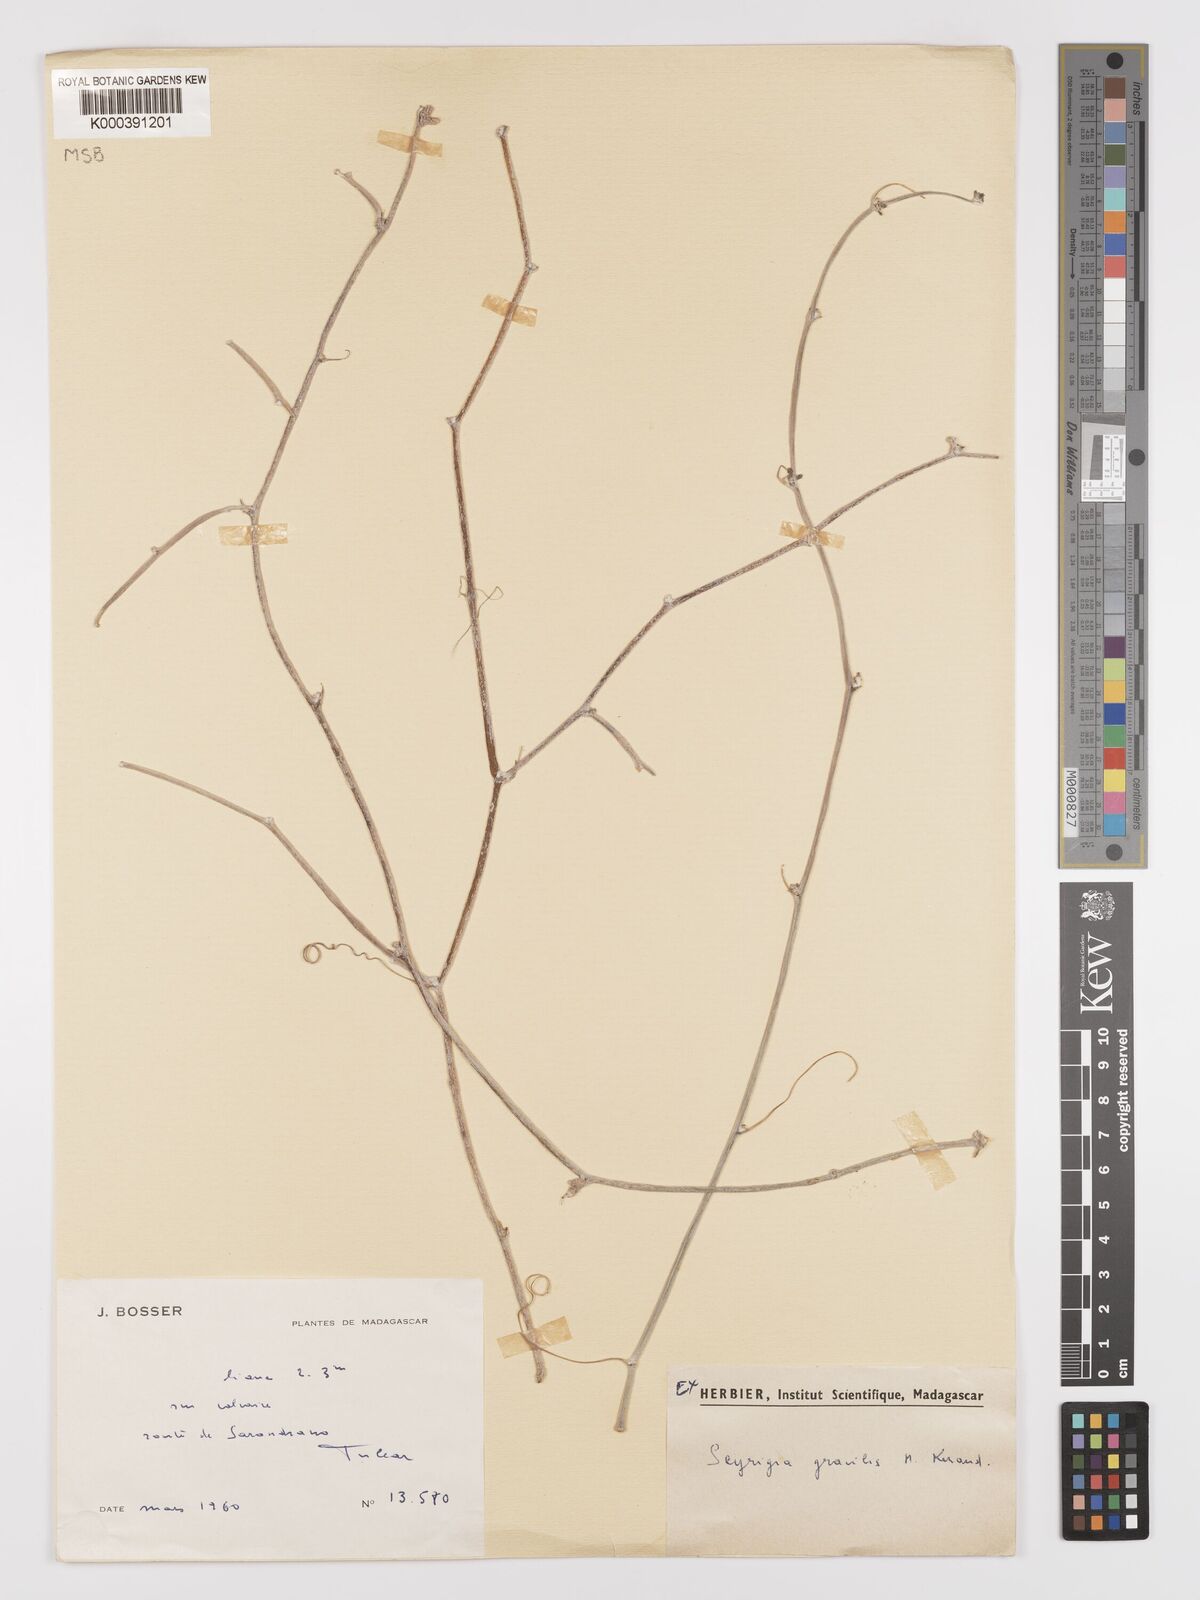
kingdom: Plantae
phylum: Tracheophyta
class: Magnoliopsida
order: Cucurbitales
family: Cucurbitaceae
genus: Seyrigia
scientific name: Seyrigia gracilis
